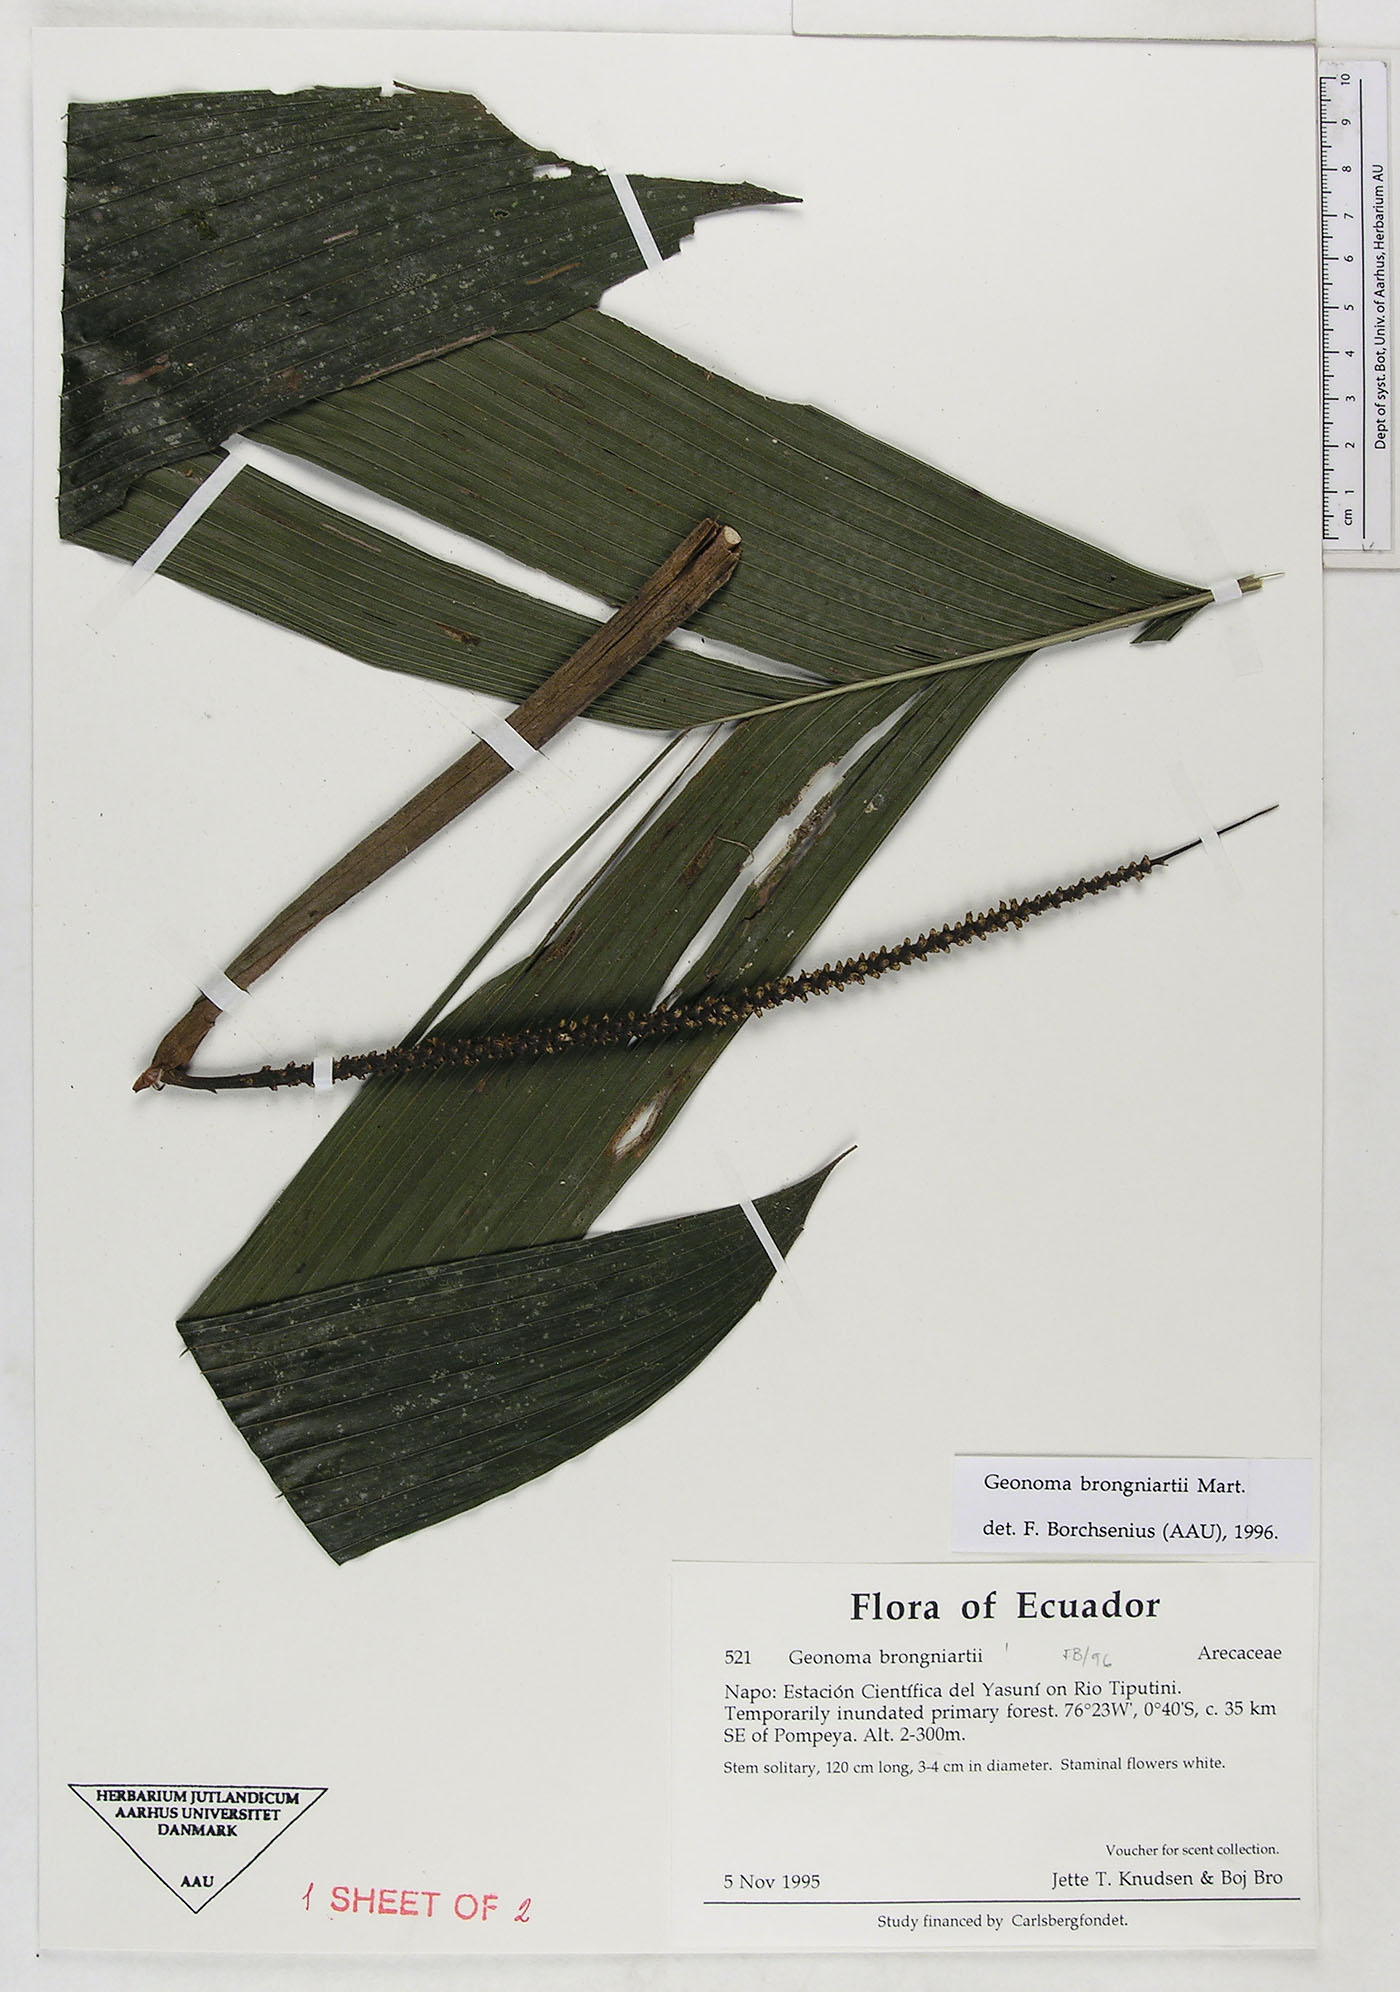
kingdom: Plantae
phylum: Tracheophyta
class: Liliopsida
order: Arecales
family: Arecaceae
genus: Geonoma
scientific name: Geonoma brongniartii
